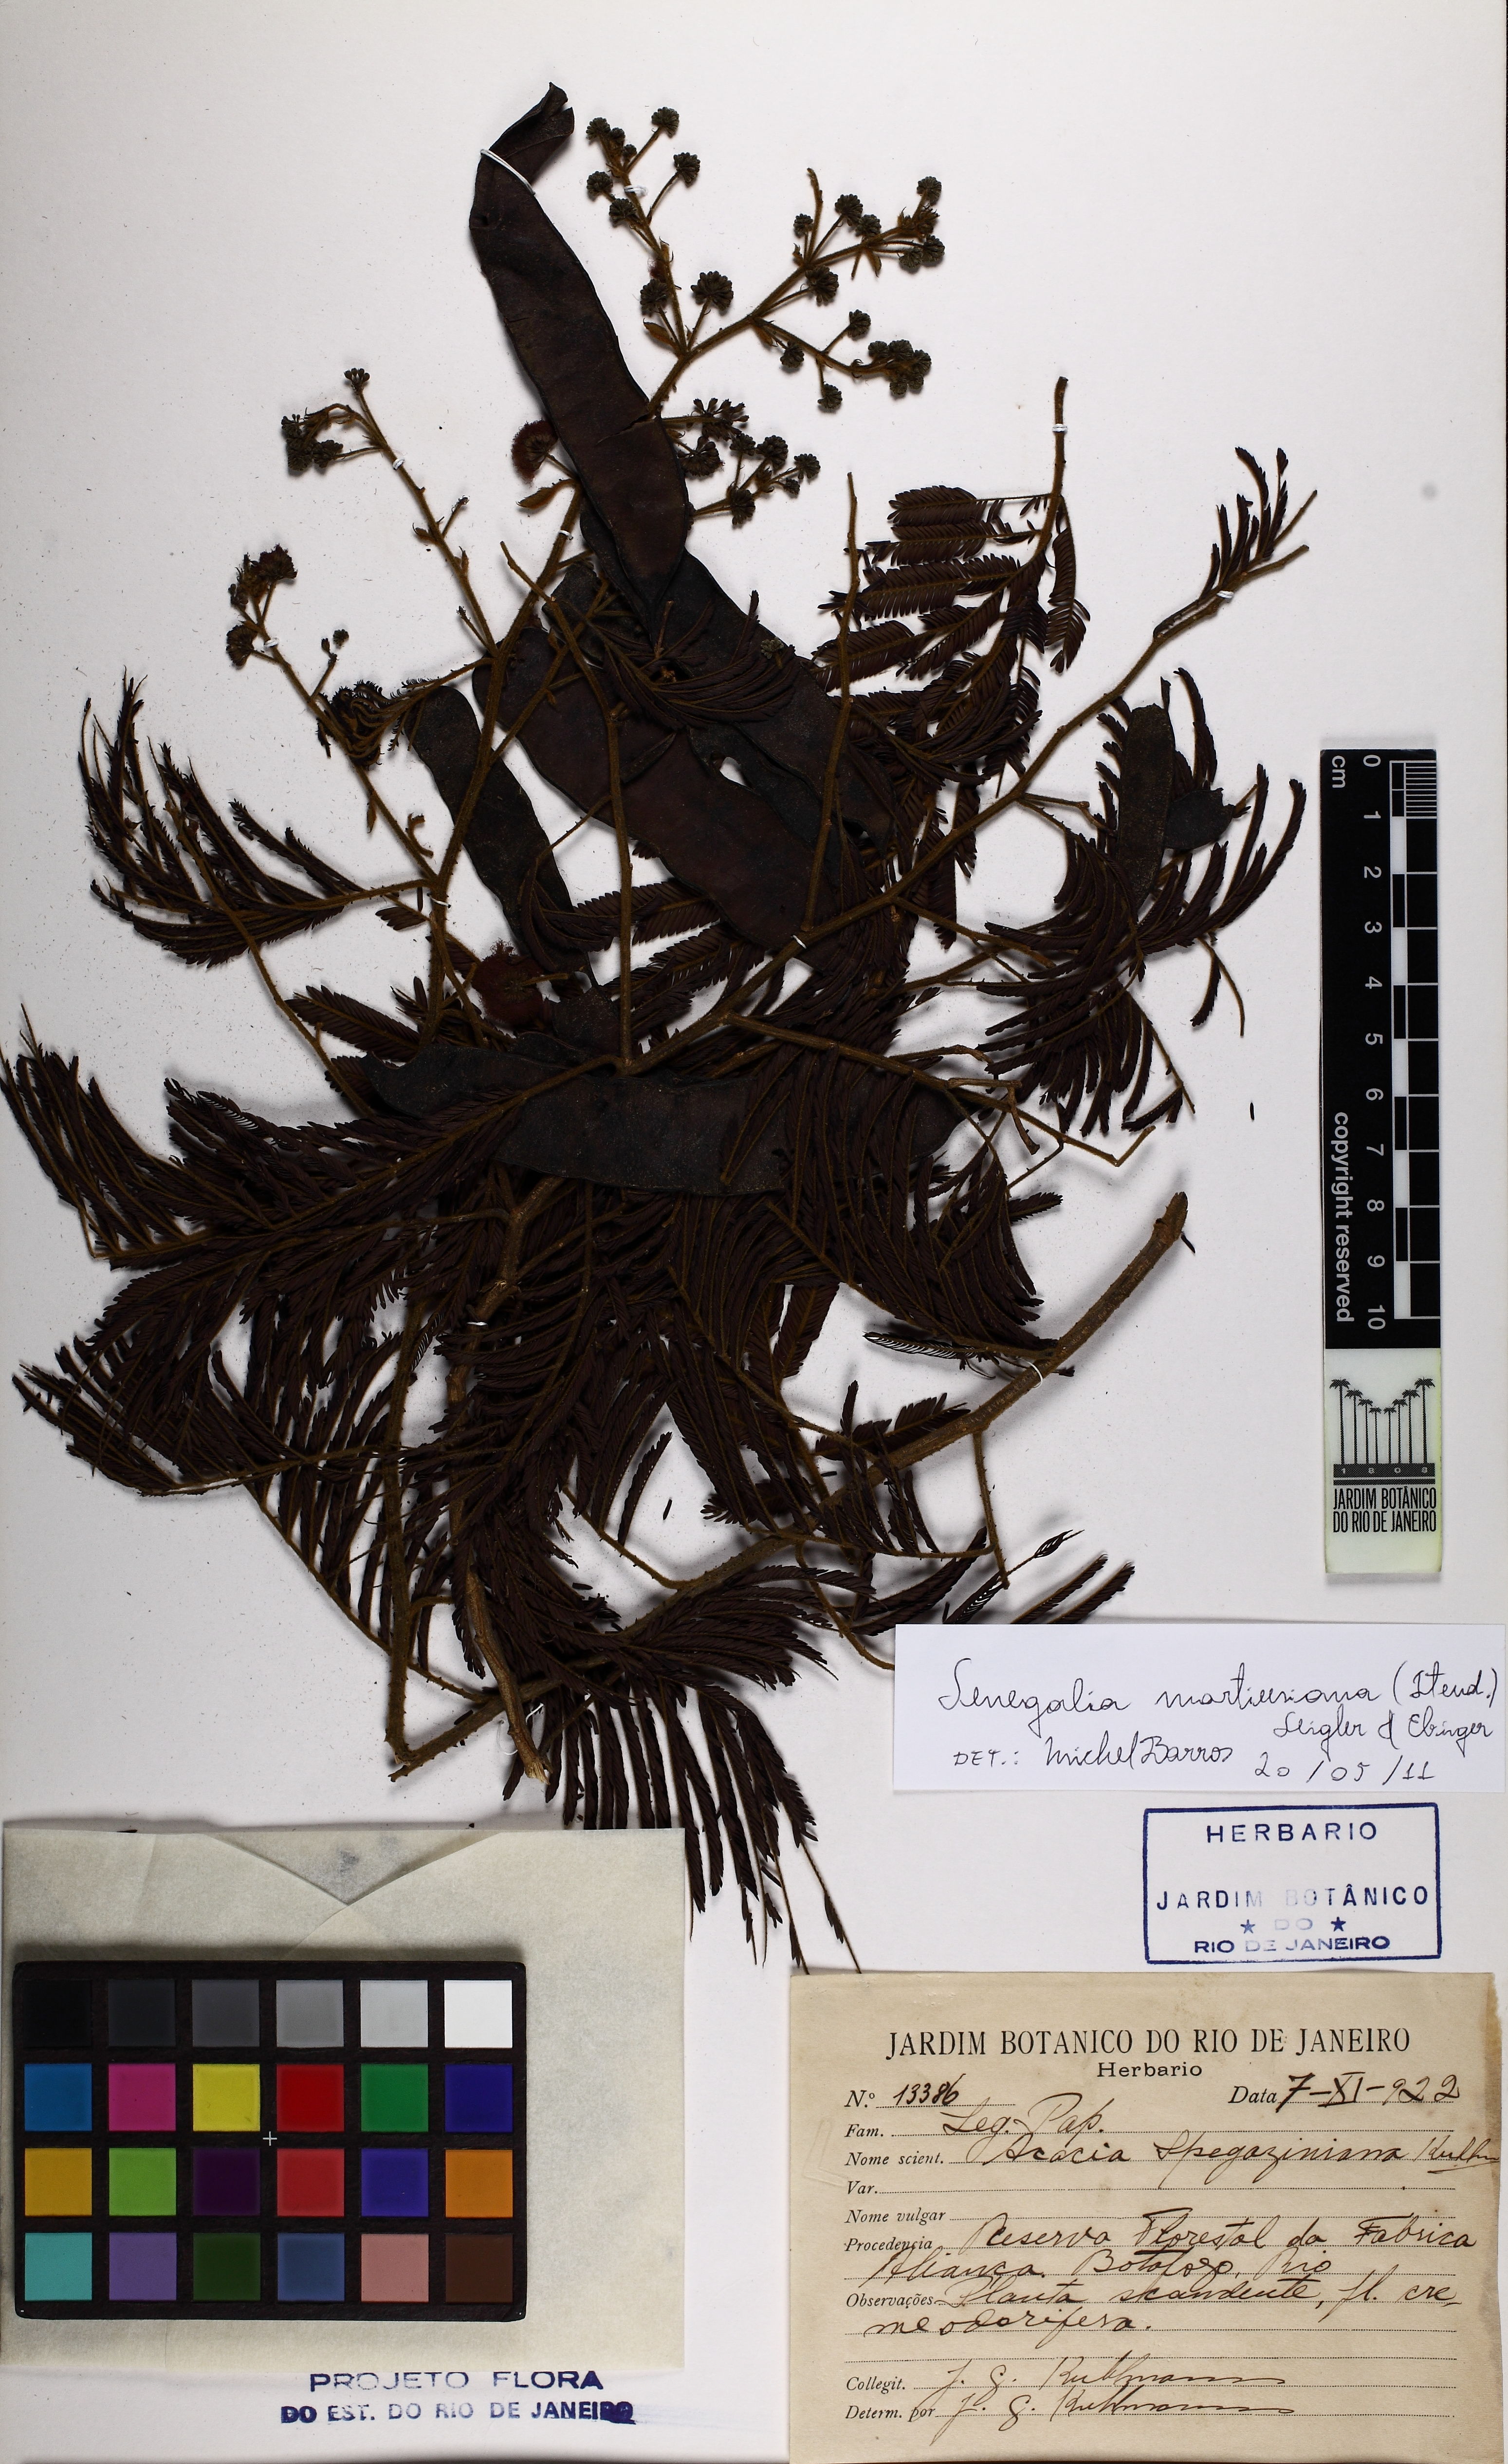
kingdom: Plantae
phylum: Tracheophyta
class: Magnoliopsida
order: Fabales
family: Fabaceae
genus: Senegalia
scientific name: Senegalia martiusiana
